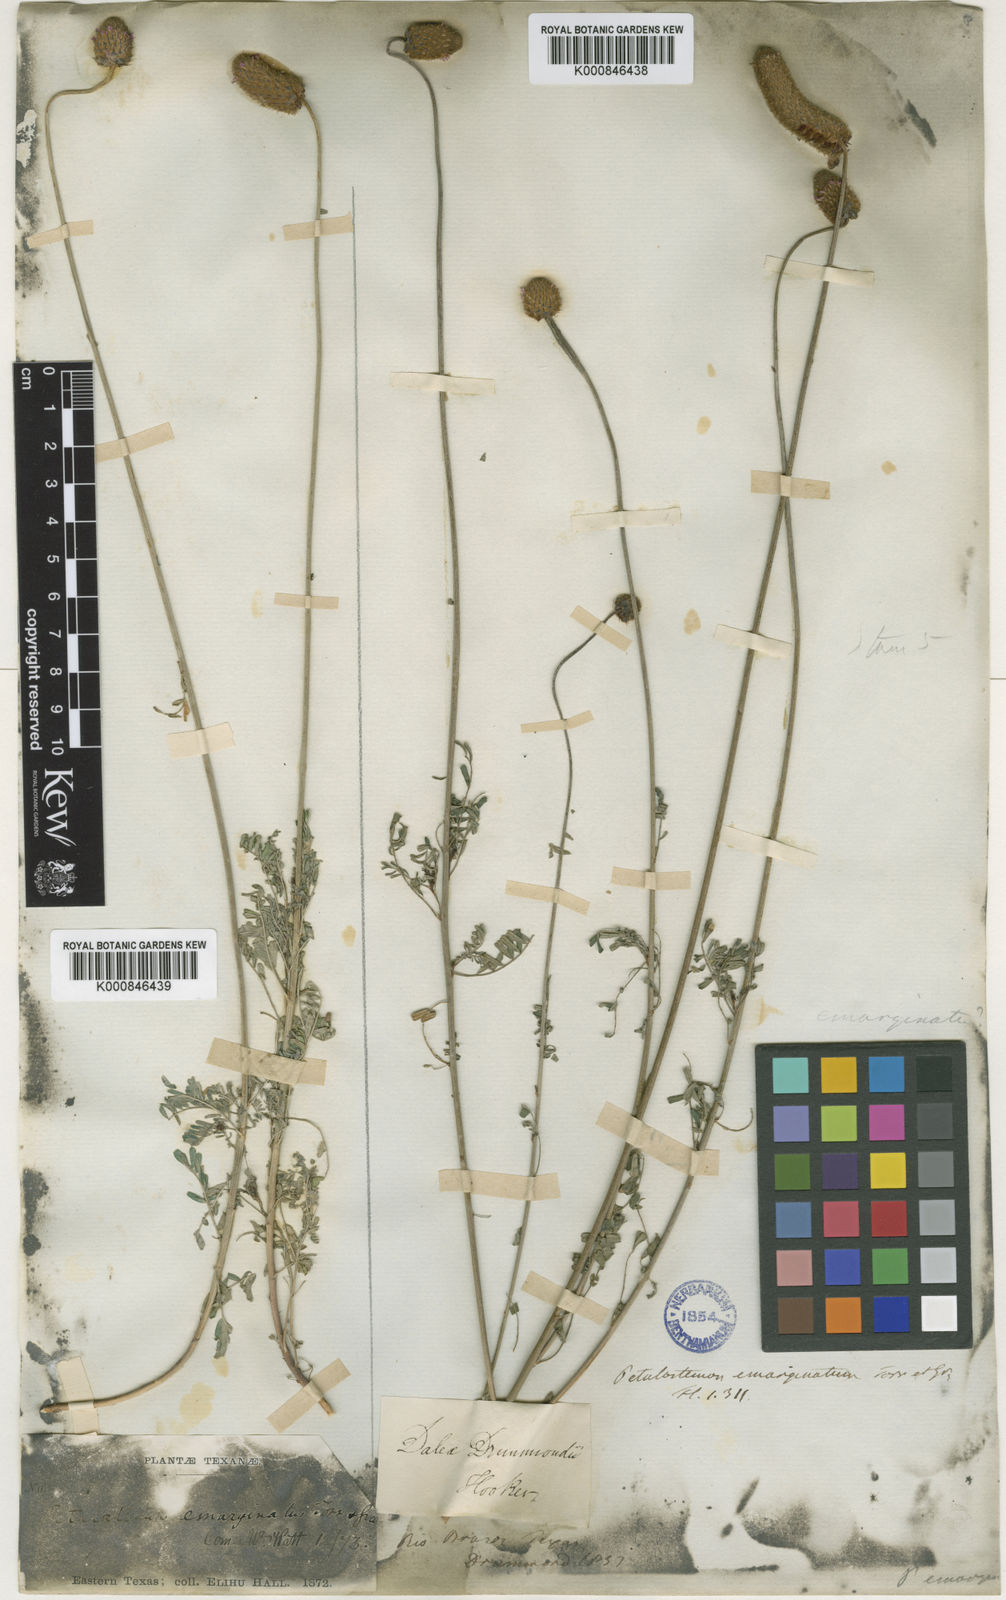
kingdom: Plantae
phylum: Tracheophyta
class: Magnoliopsida
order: Fabales
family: Fabaceae
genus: Dalea
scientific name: Dalea emarginata
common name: Wedgeleaf prairie clover
